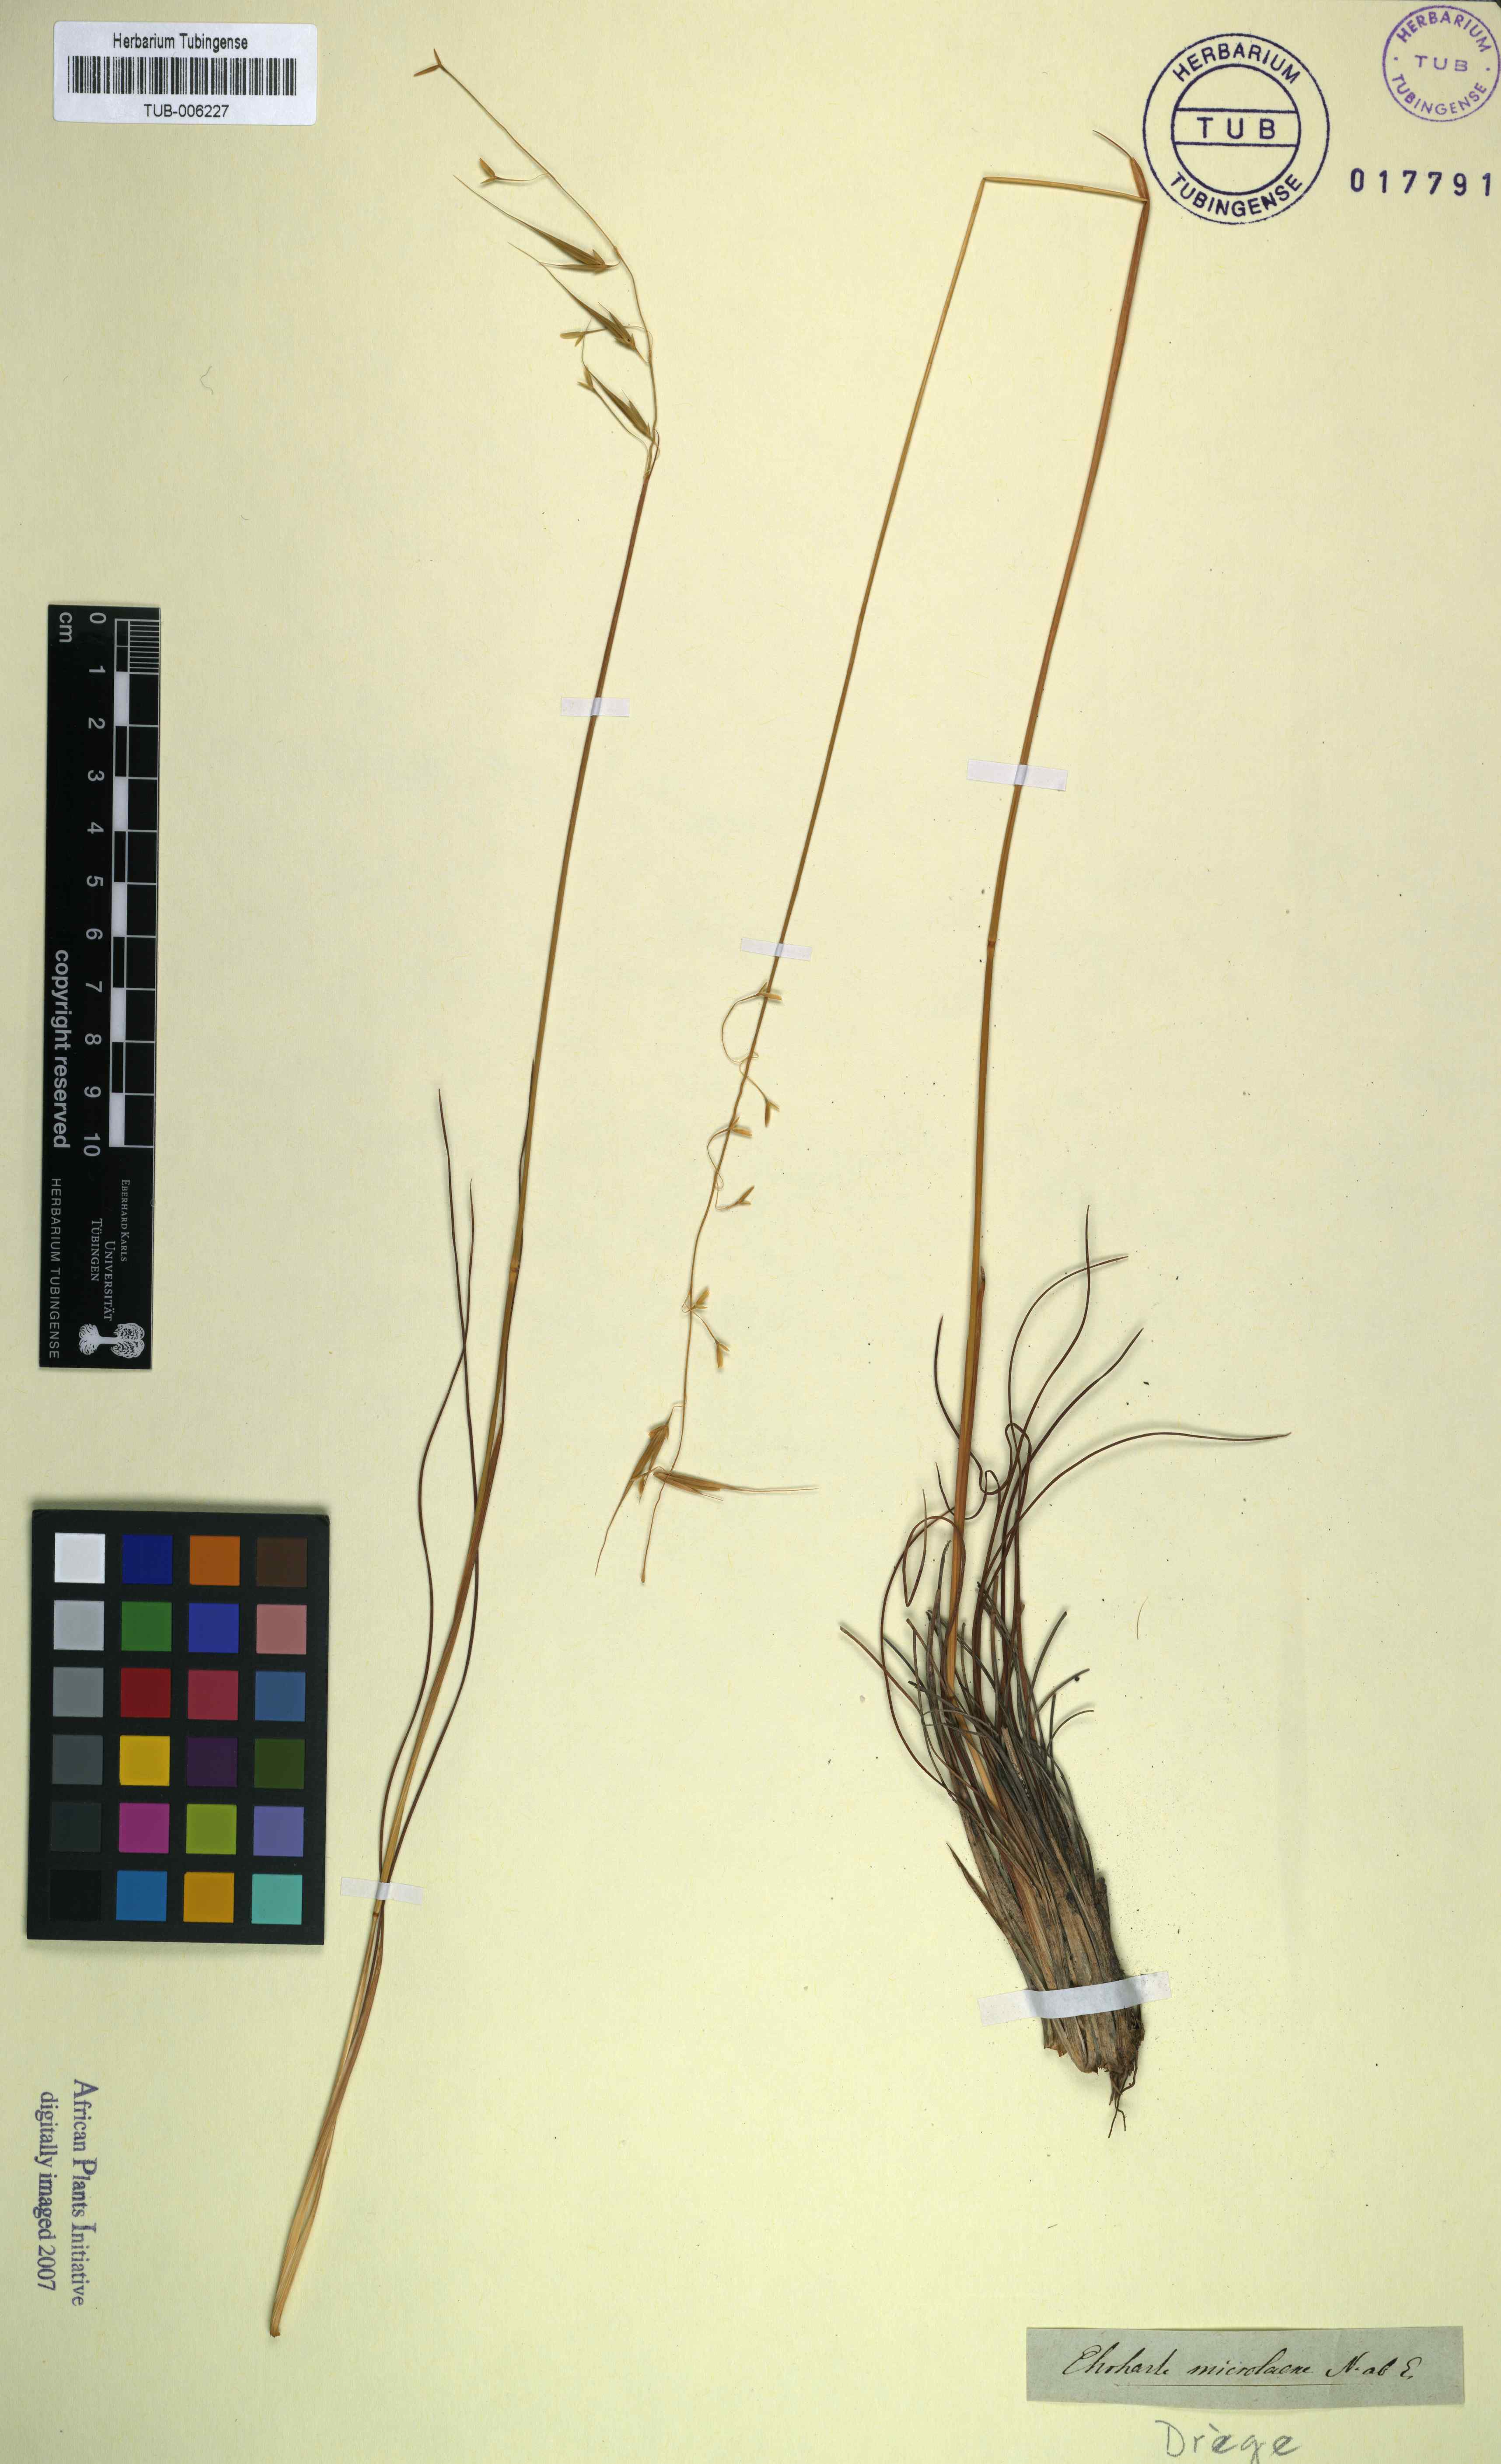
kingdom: Plantae
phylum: Tracheophyta
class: Liliopsida
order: Poales
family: Poaceae
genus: Ehrharta
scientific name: Ehrharta microlaena
